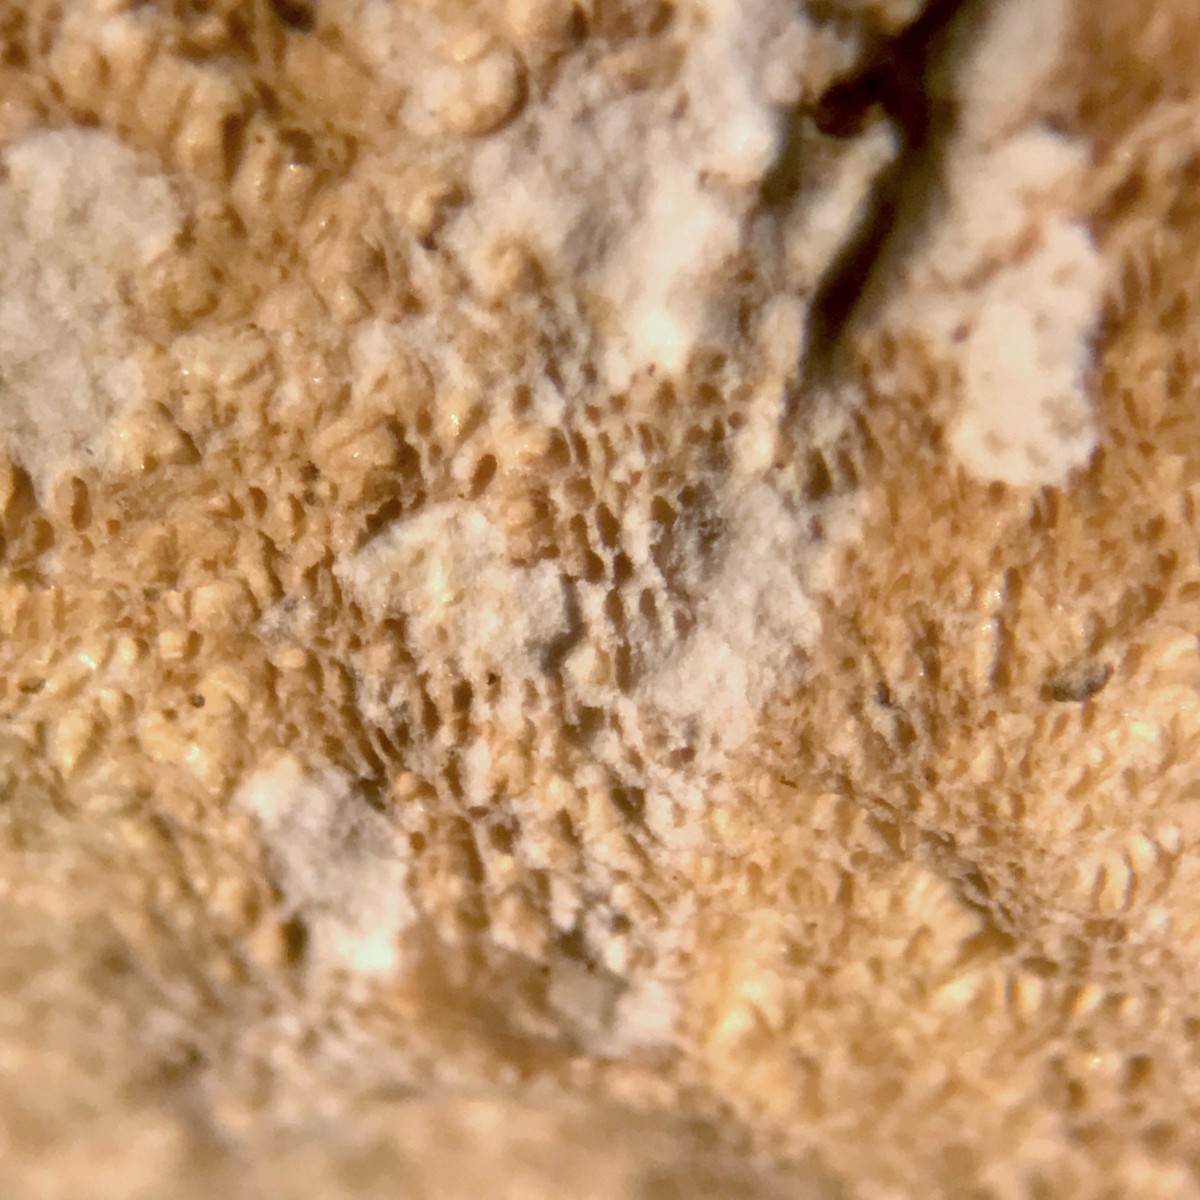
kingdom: Fungi
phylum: Basidiomycota
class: Agaricomycetes
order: Agaricales
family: Porotheleaceae
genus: Porotheleum
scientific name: Porotheleum fimbriatum
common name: poreskål
